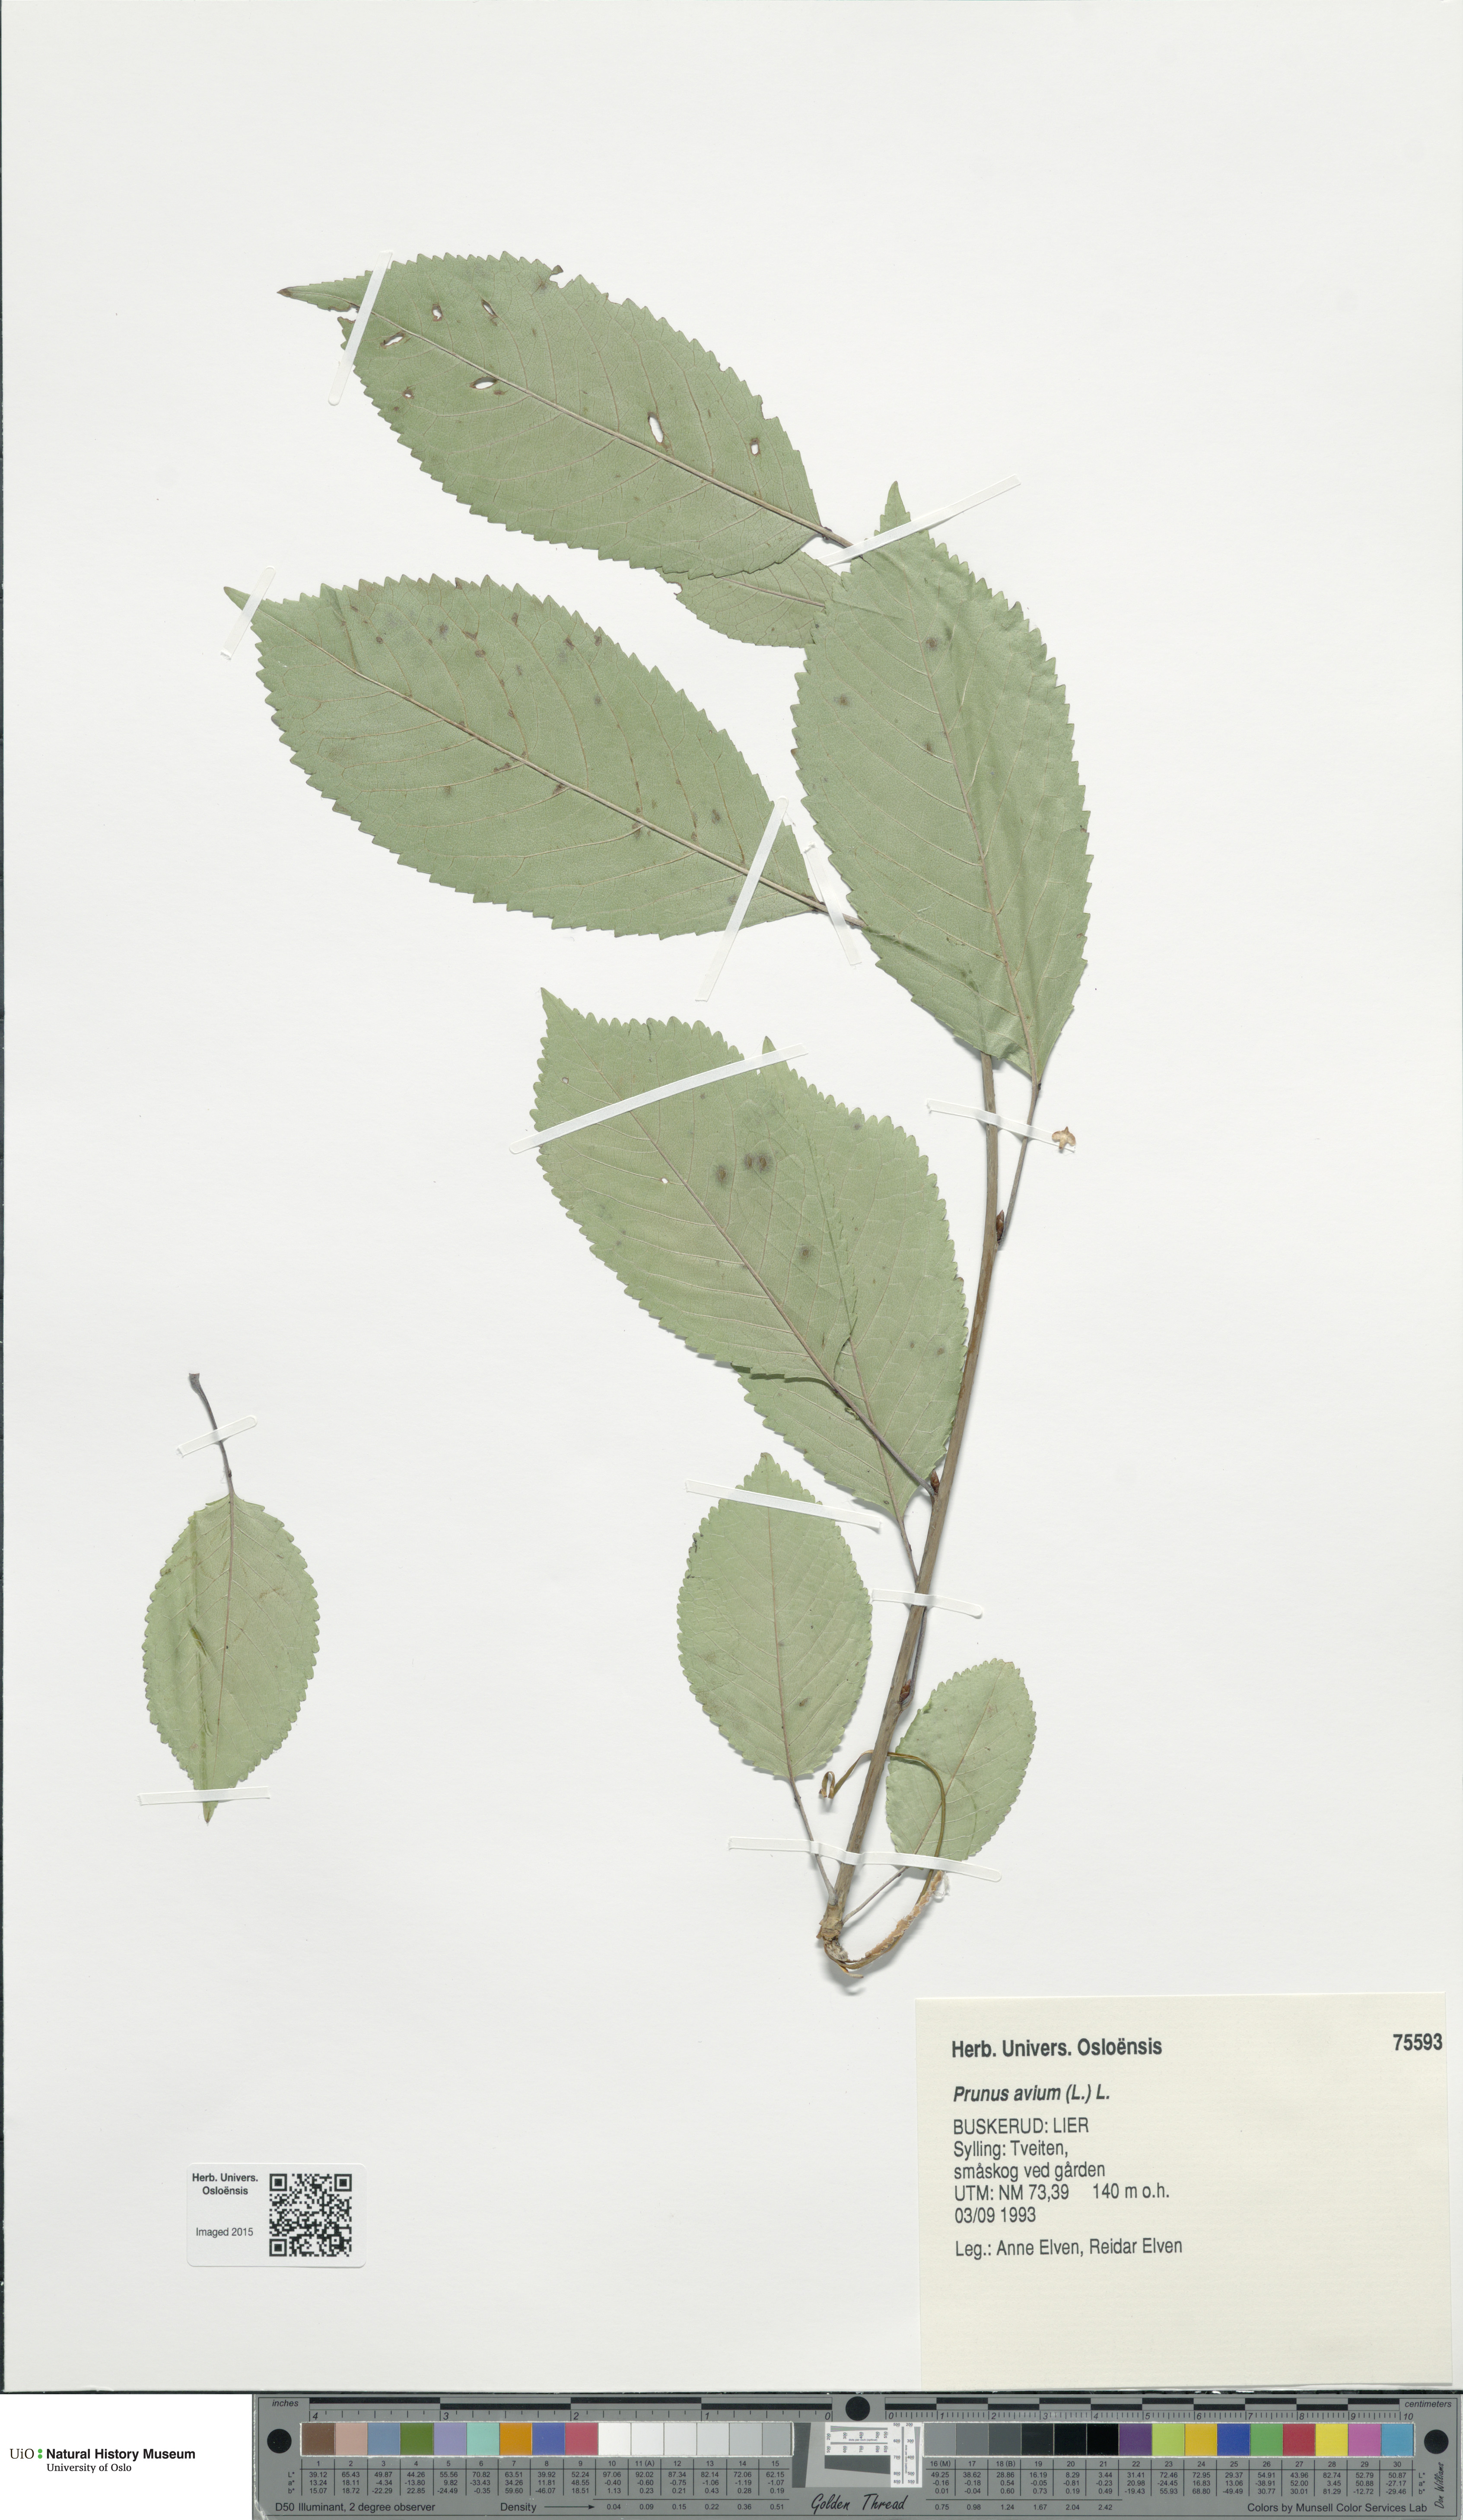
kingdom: Plantae
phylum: Tracheophyta
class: Magnoliopsida
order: Rosales
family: Rosaceae
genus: Prunus
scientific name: Prunus avium
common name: Sweet cherry
